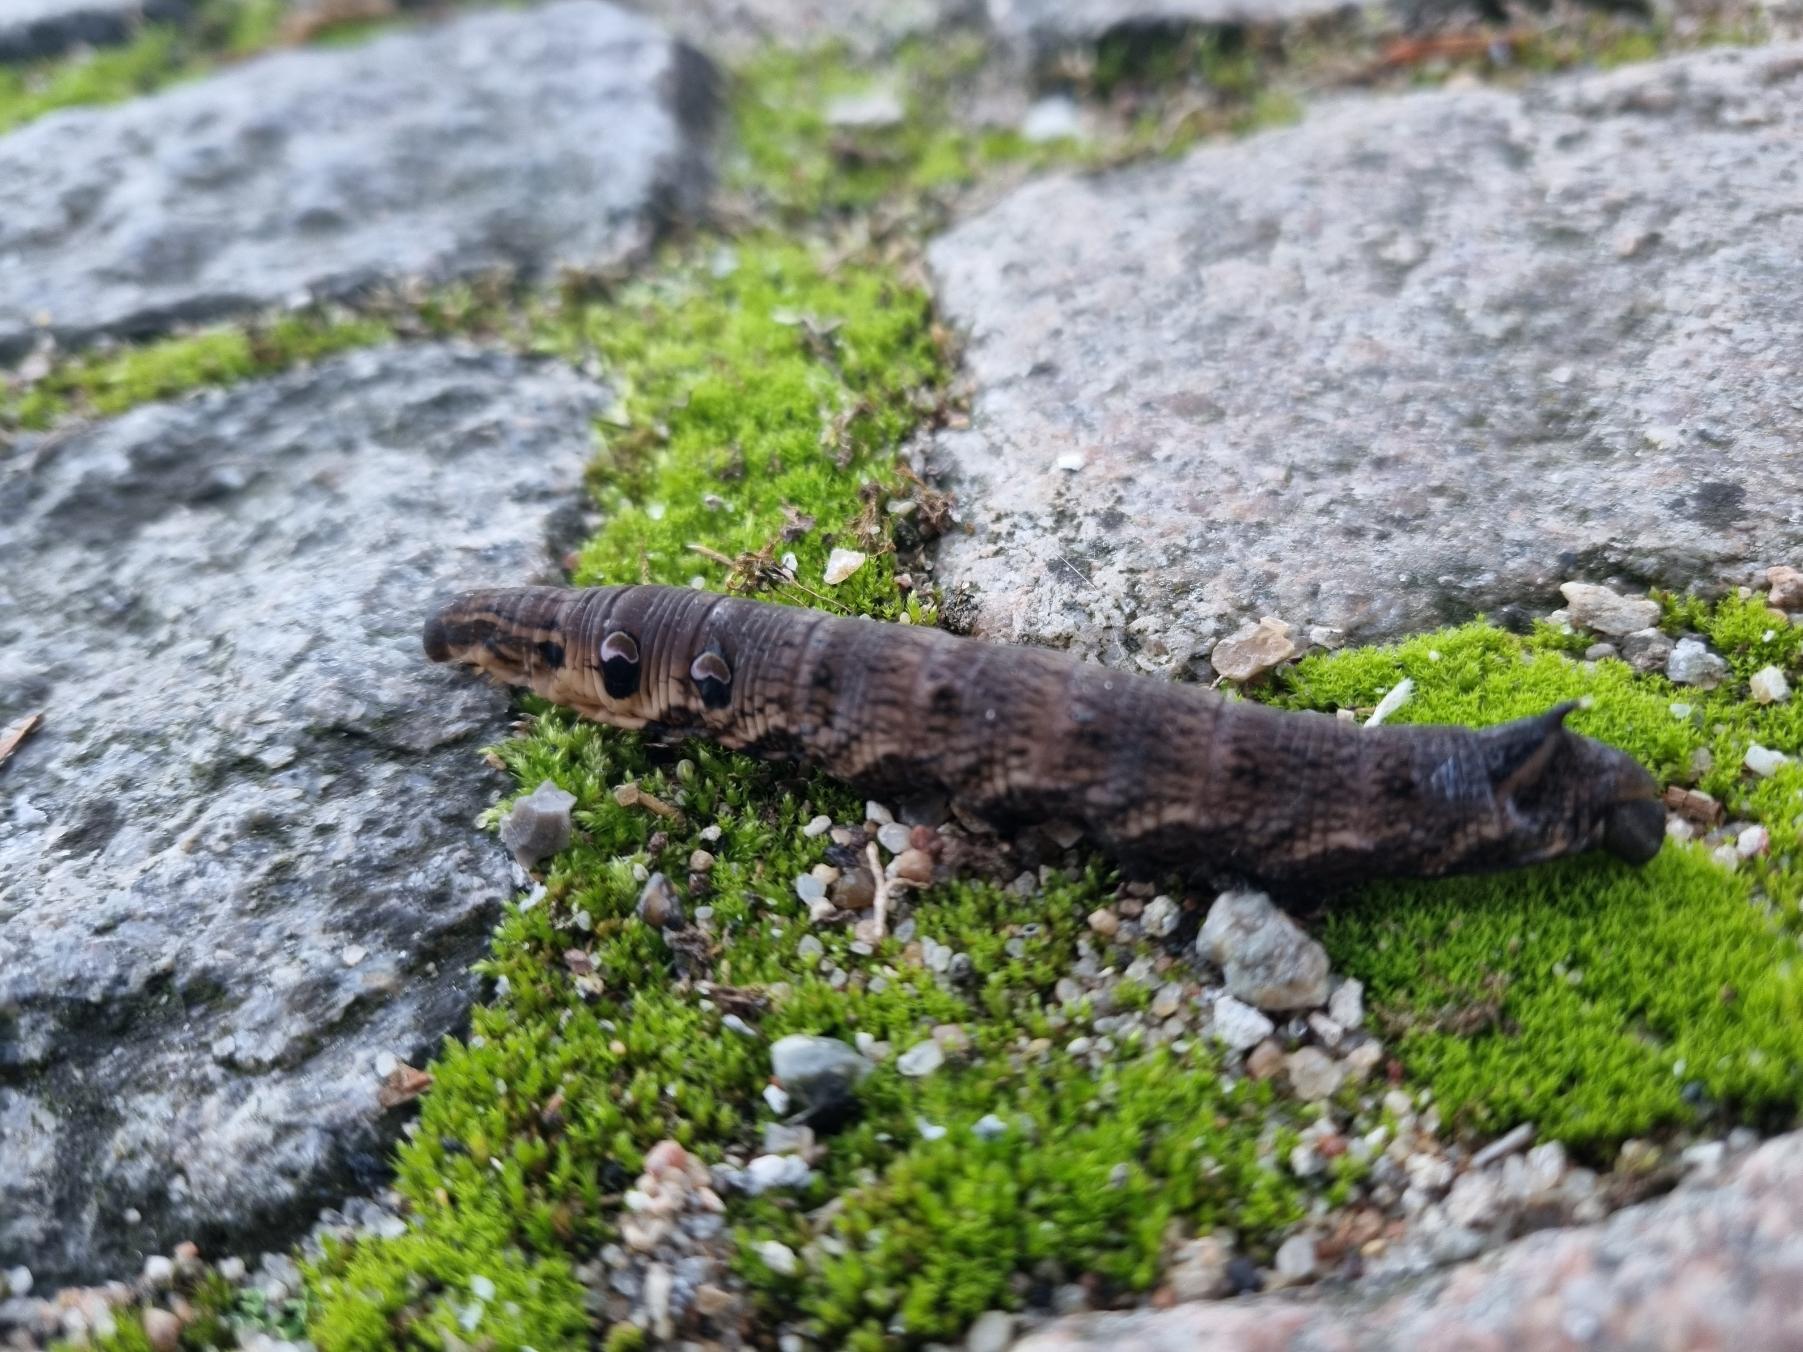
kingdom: Animalia
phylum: Arthropoda
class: Insecta
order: Lepidoptera
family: Sphingidae
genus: Deilephila
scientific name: Deilephila elpenor
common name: Dueurtsværmer
